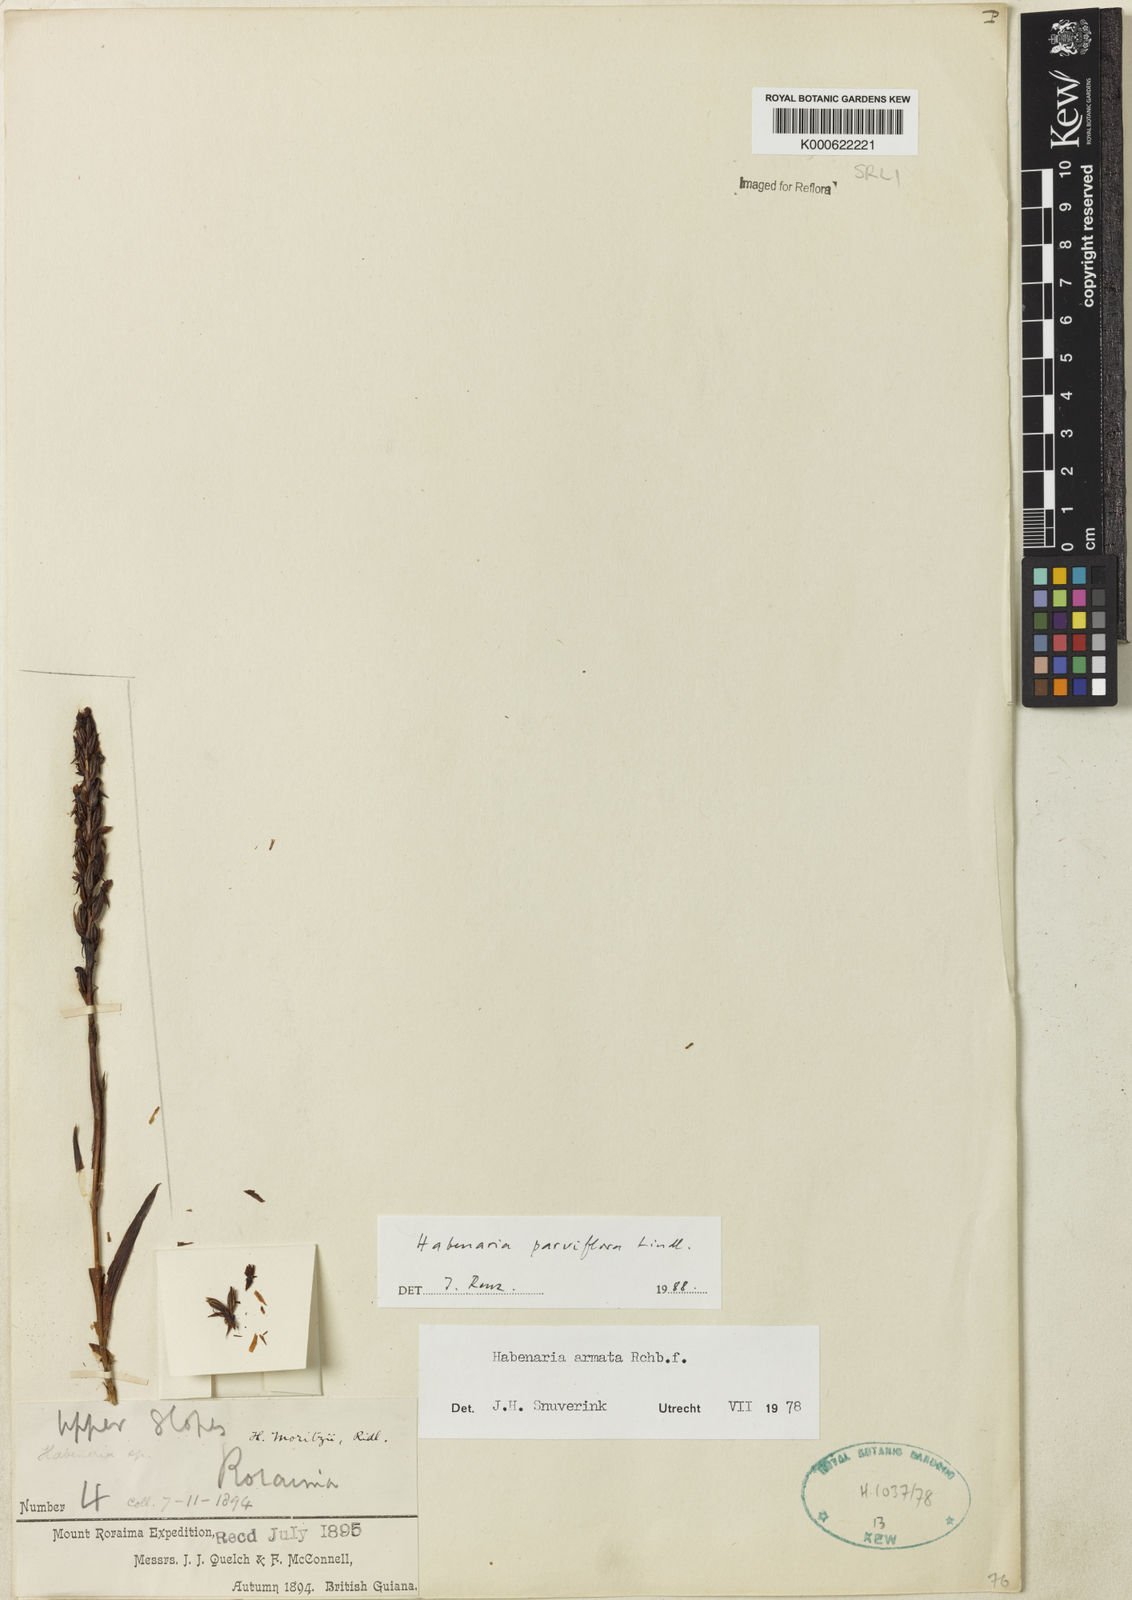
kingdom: Plantae
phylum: Tracheophyta
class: Liliopsida
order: Asparagales
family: Orchidaceae
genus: Habenaria
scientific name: Habenaria parviflora
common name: Small flowered habenaria
